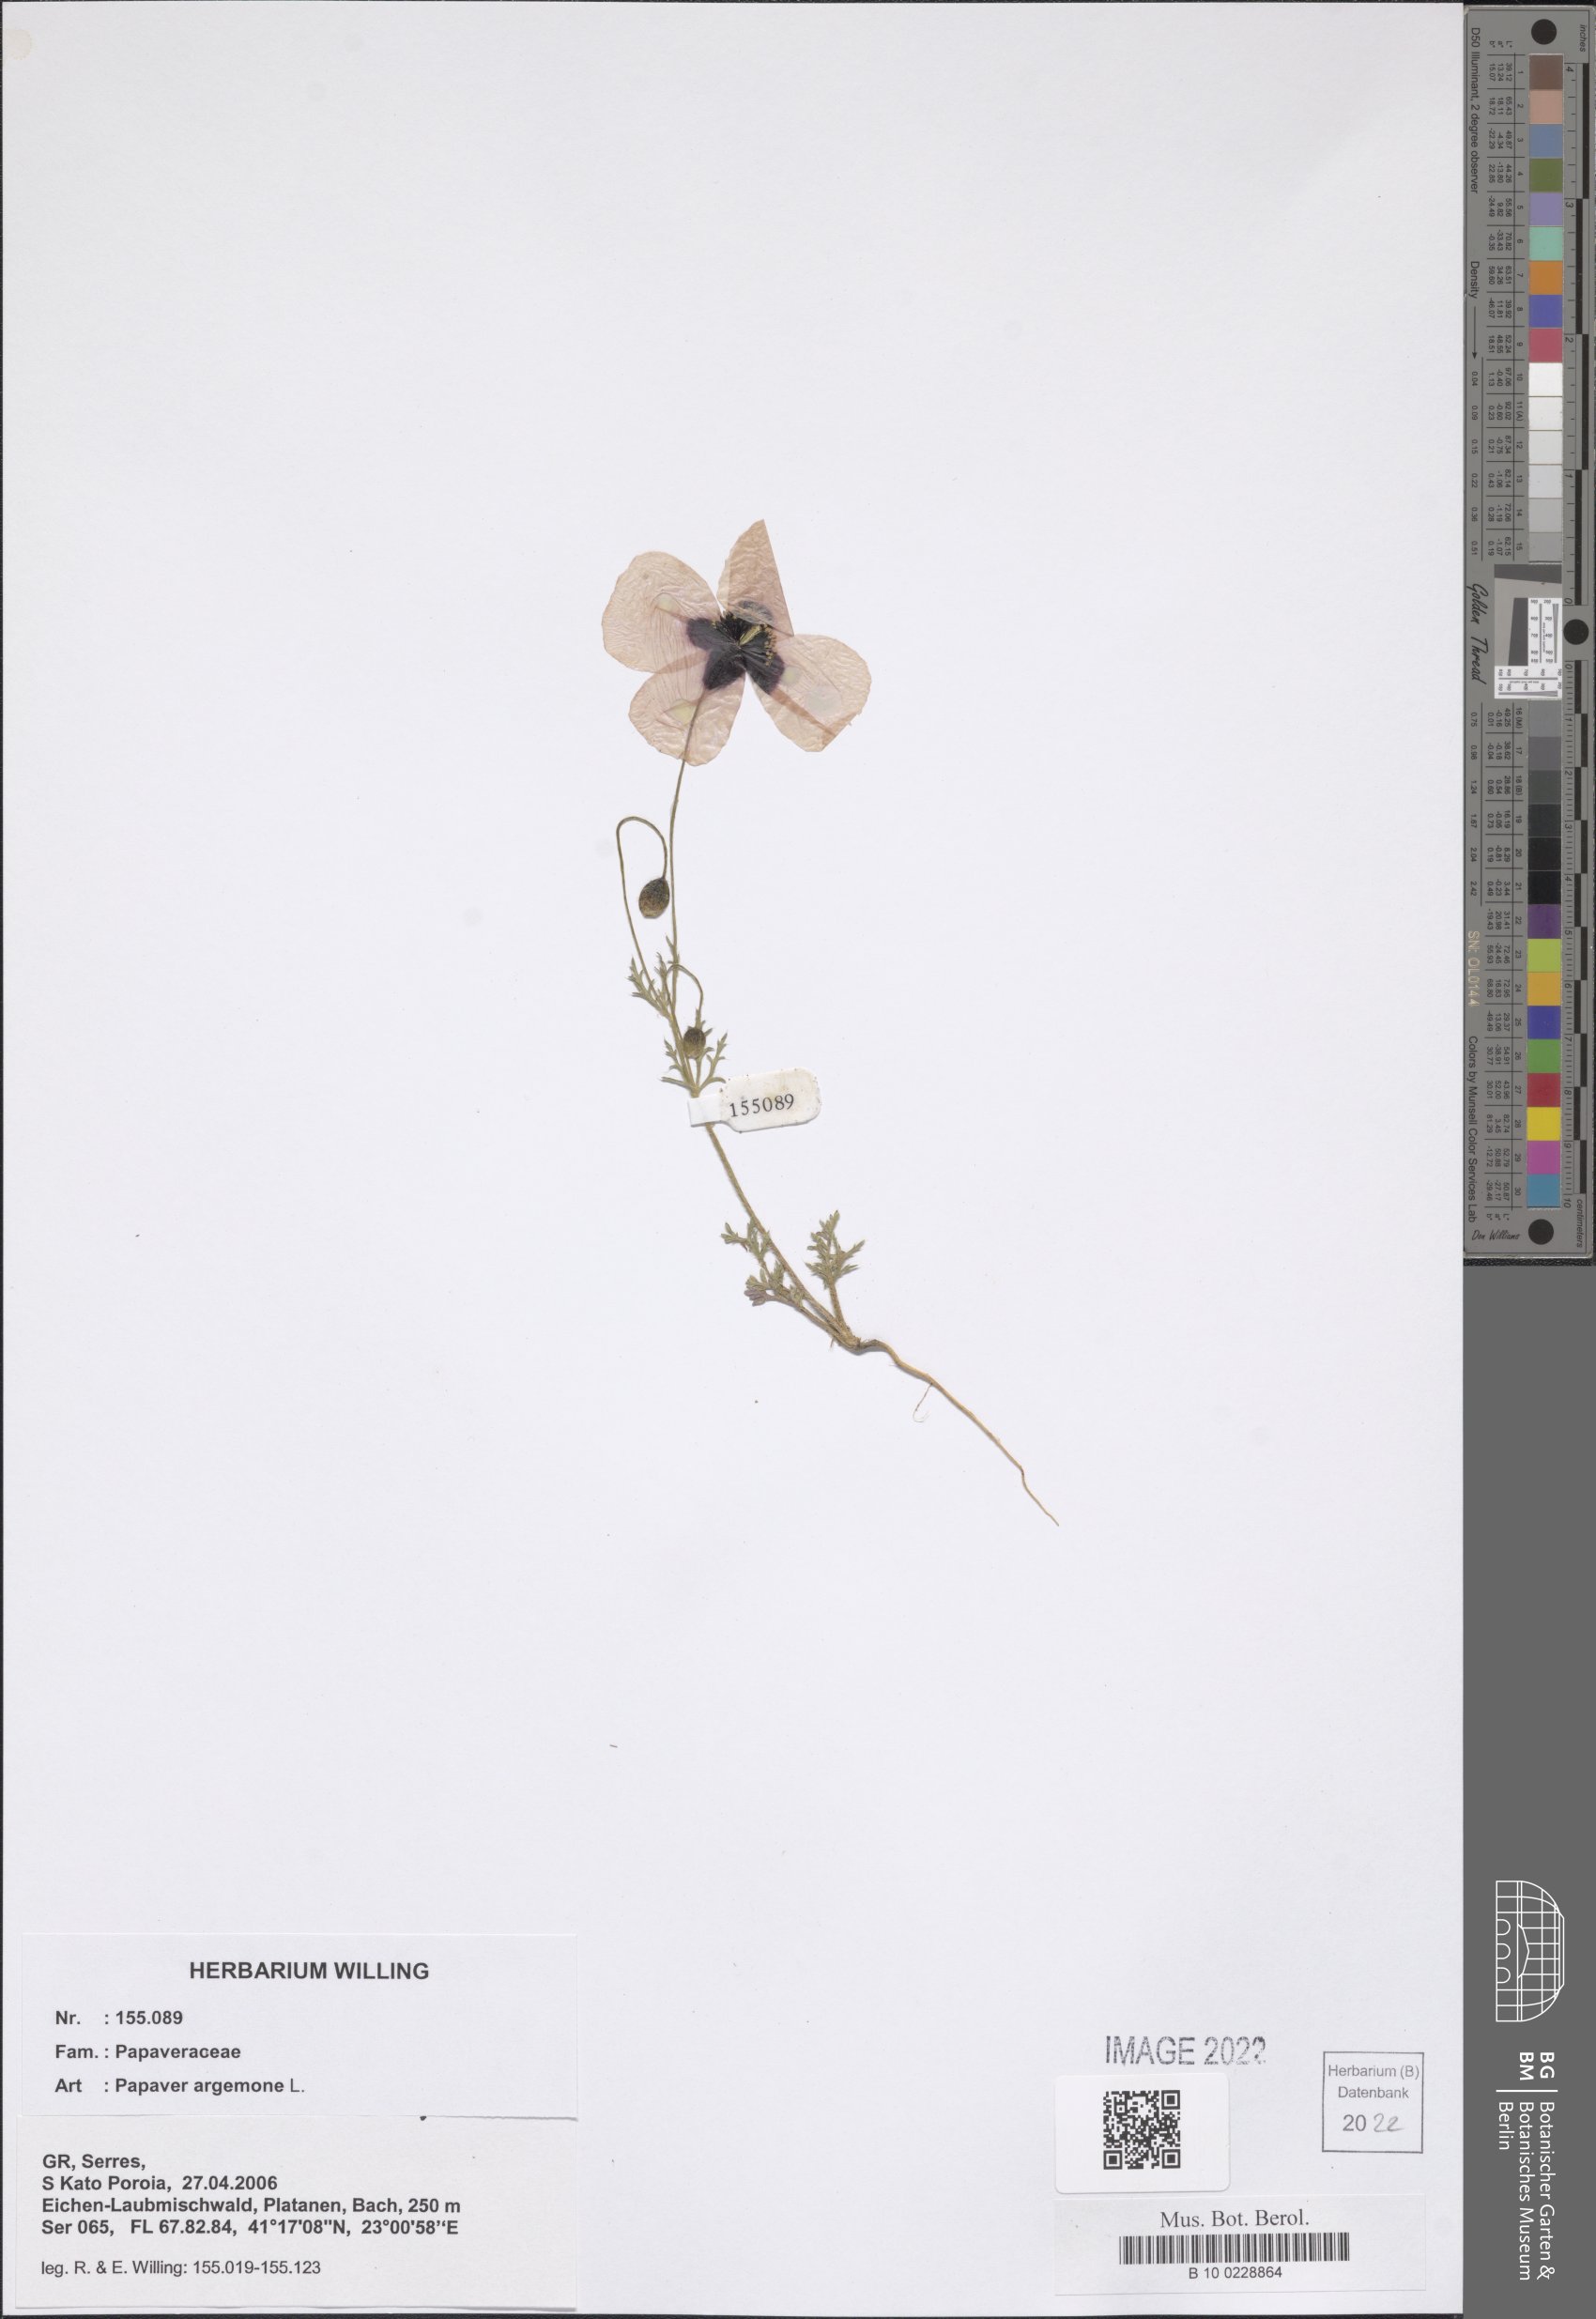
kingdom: Plantae
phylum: Tracheophyta
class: Magnoliopsida
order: Ranunculales
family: Papaveraceae
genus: Roemeria
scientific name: Roemeria argemone
